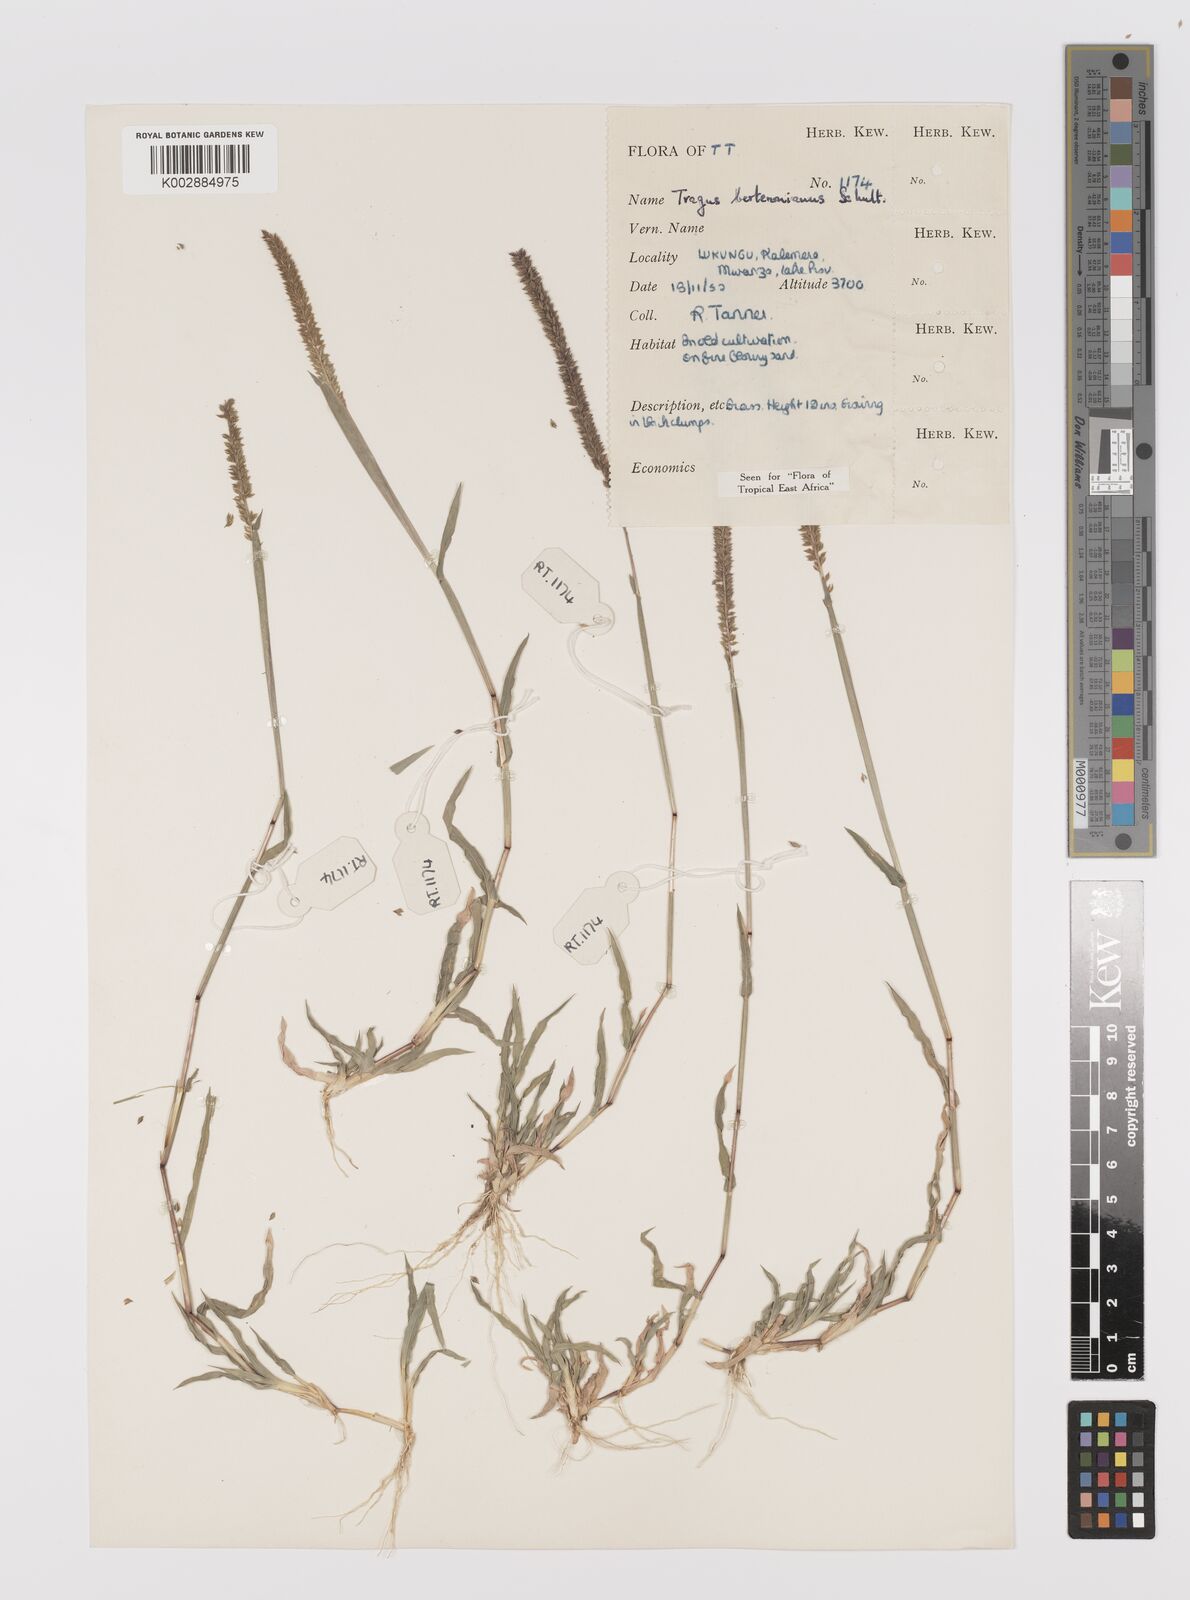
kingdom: Plantae
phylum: Tracheophyta
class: Liliopsida
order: Poales
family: Poaceae
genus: Tragus
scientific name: Tragus berteronianus
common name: African bur-grass
